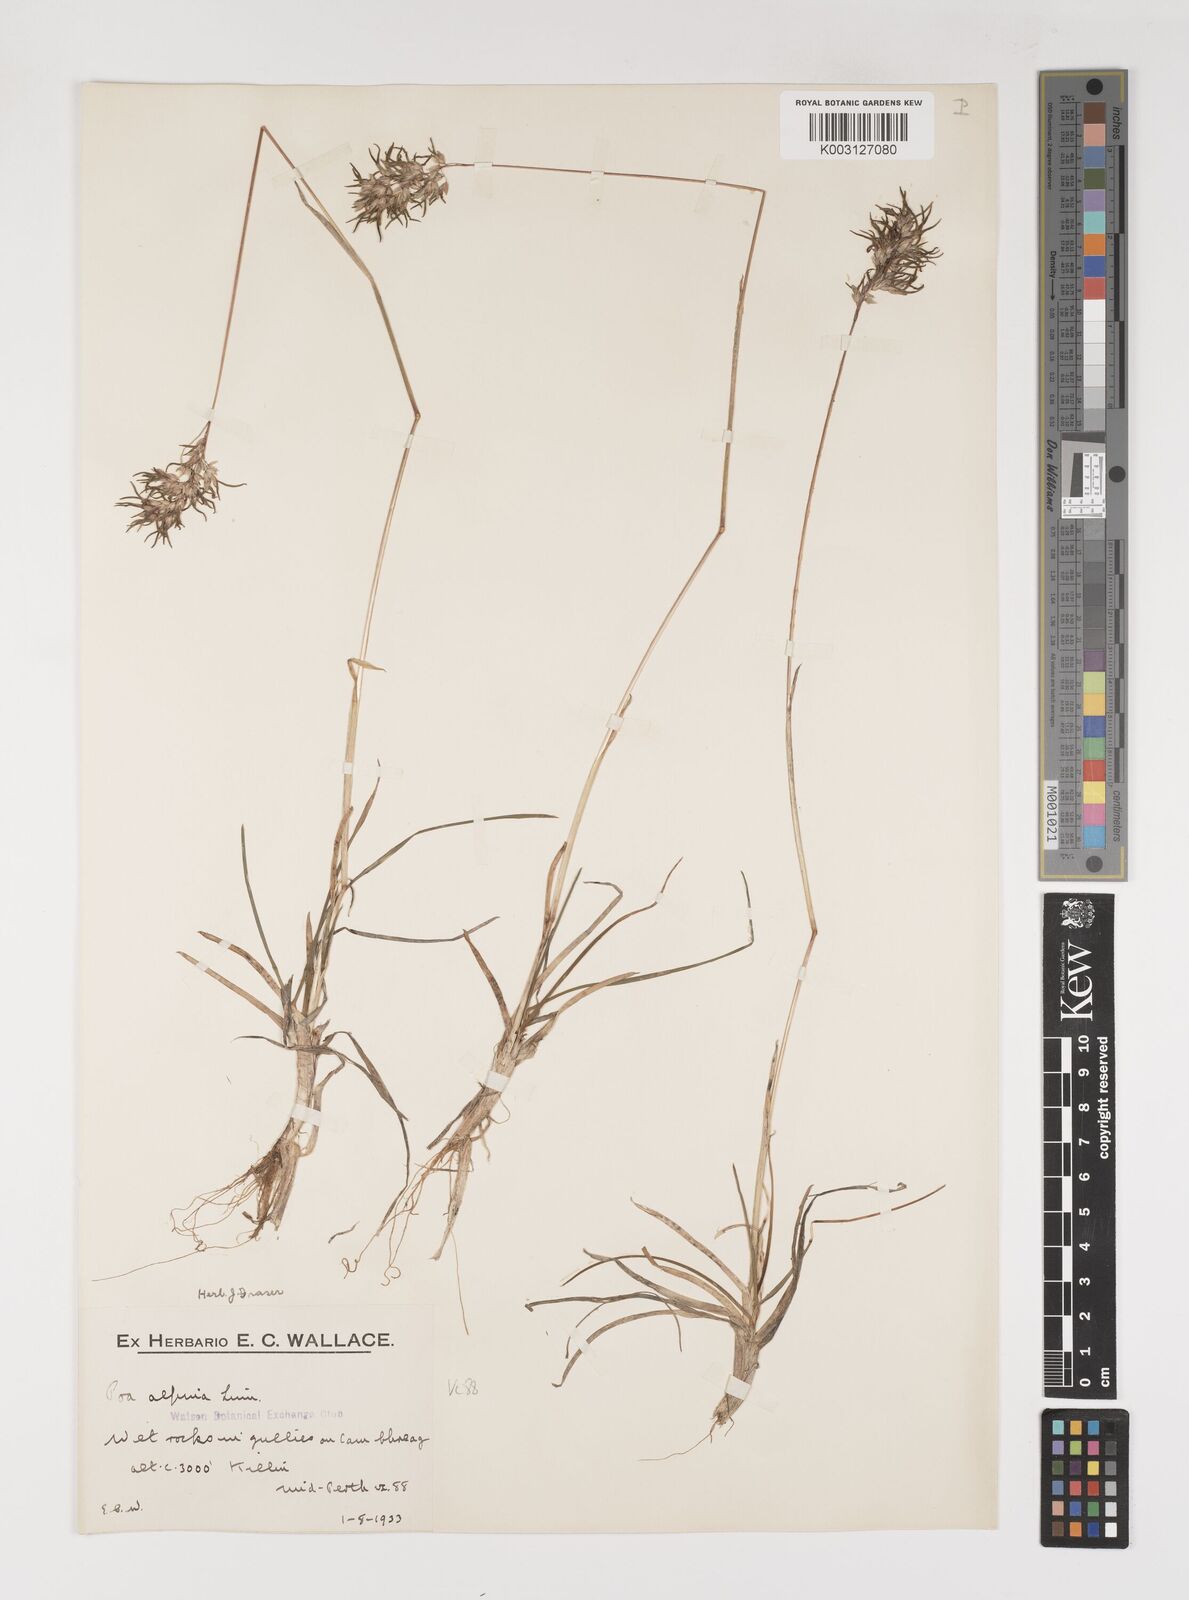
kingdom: Plantae
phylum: Tracheophyta
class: Liliopsida
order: Poales
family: Poaceae
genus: Poa
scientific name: Poa alpina
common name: Alpine bluegrass
